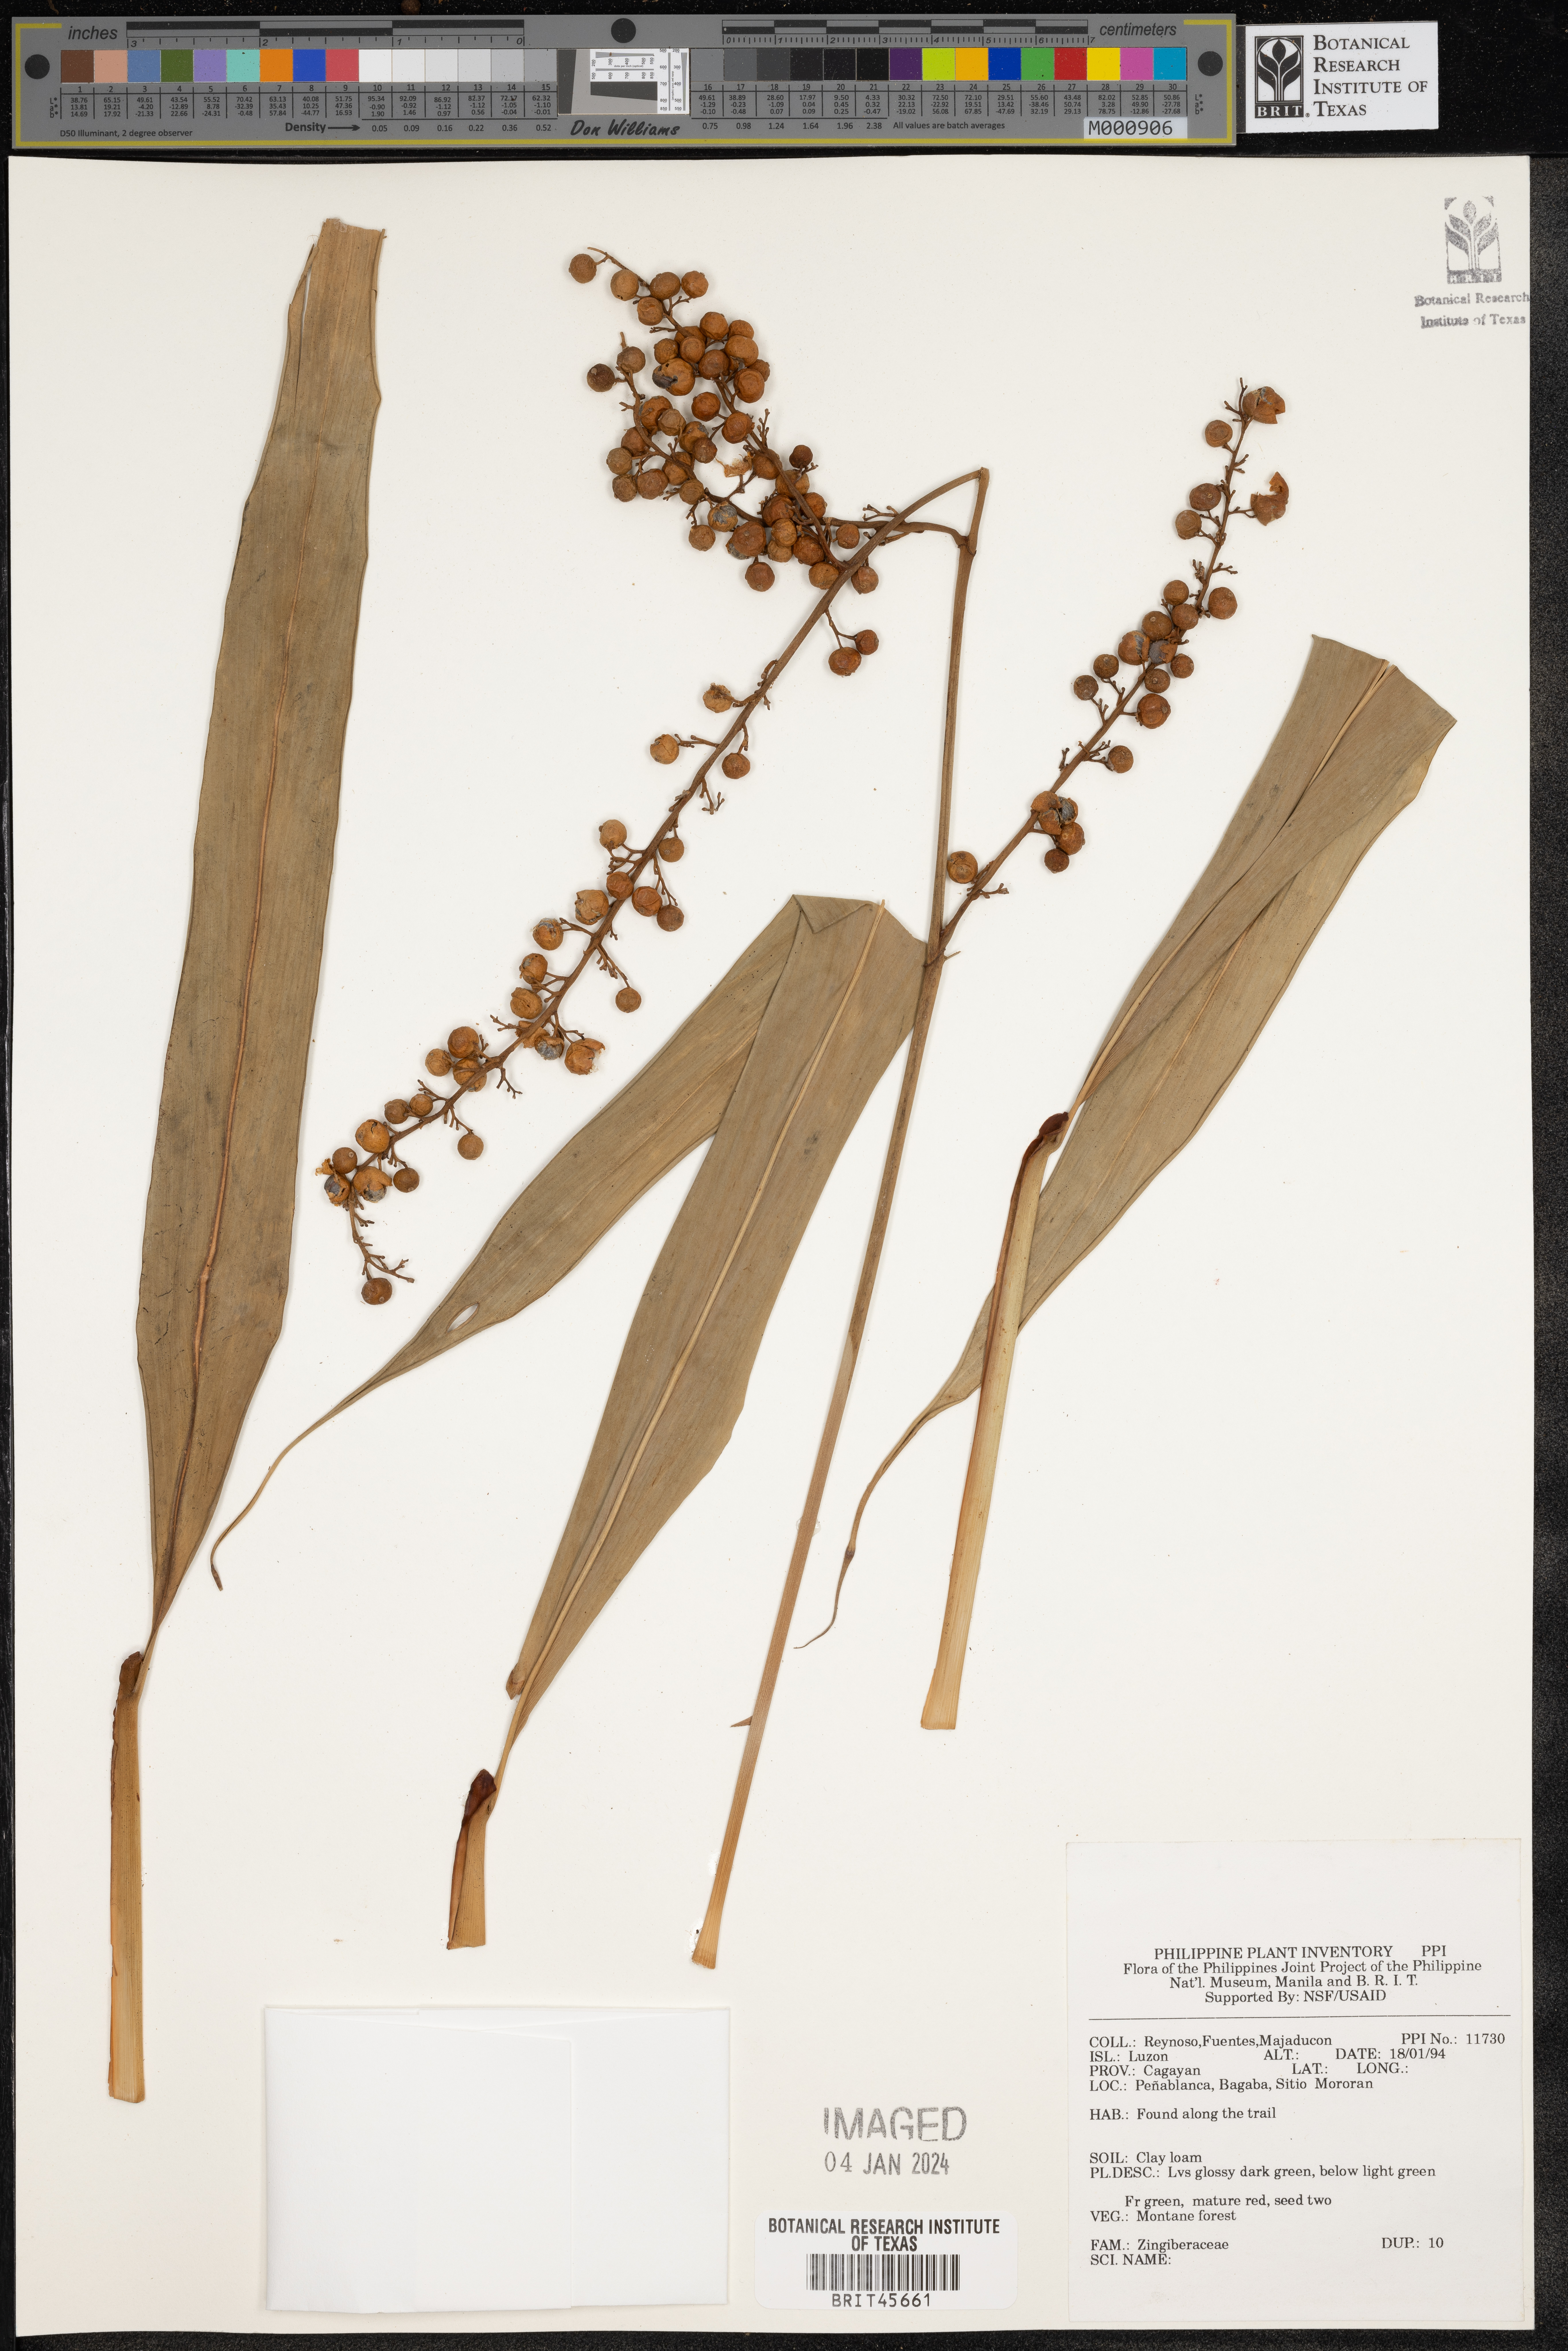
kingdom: Plantae
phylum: Tracheophyta
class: Liliopsida
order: Zingiberales
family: Zingiberaceae
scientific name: Zingiberaceae
